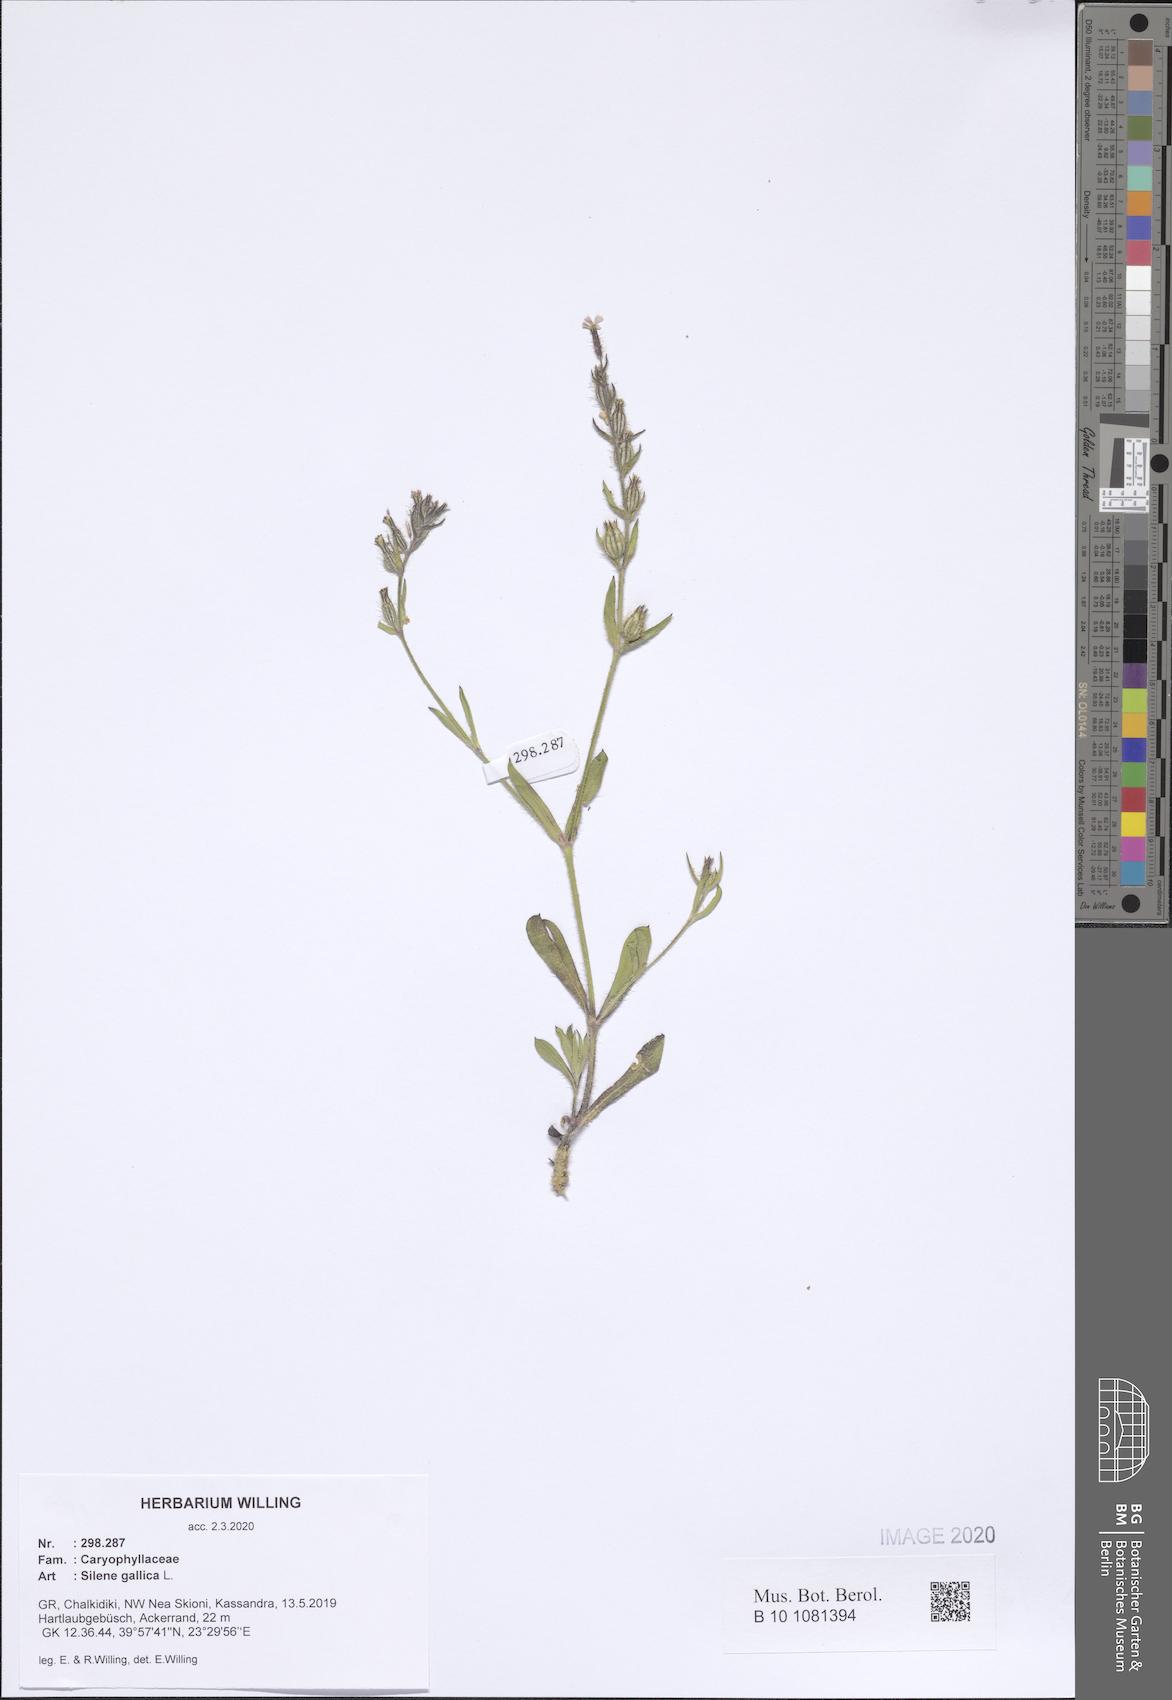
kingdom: Plantae
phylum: Tracheophyta
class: Magnoliopsida
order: Caryophyllales
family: Caryophyllaceae
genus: Silene
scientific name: Silene gallica
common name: Small-flowered catchfly
